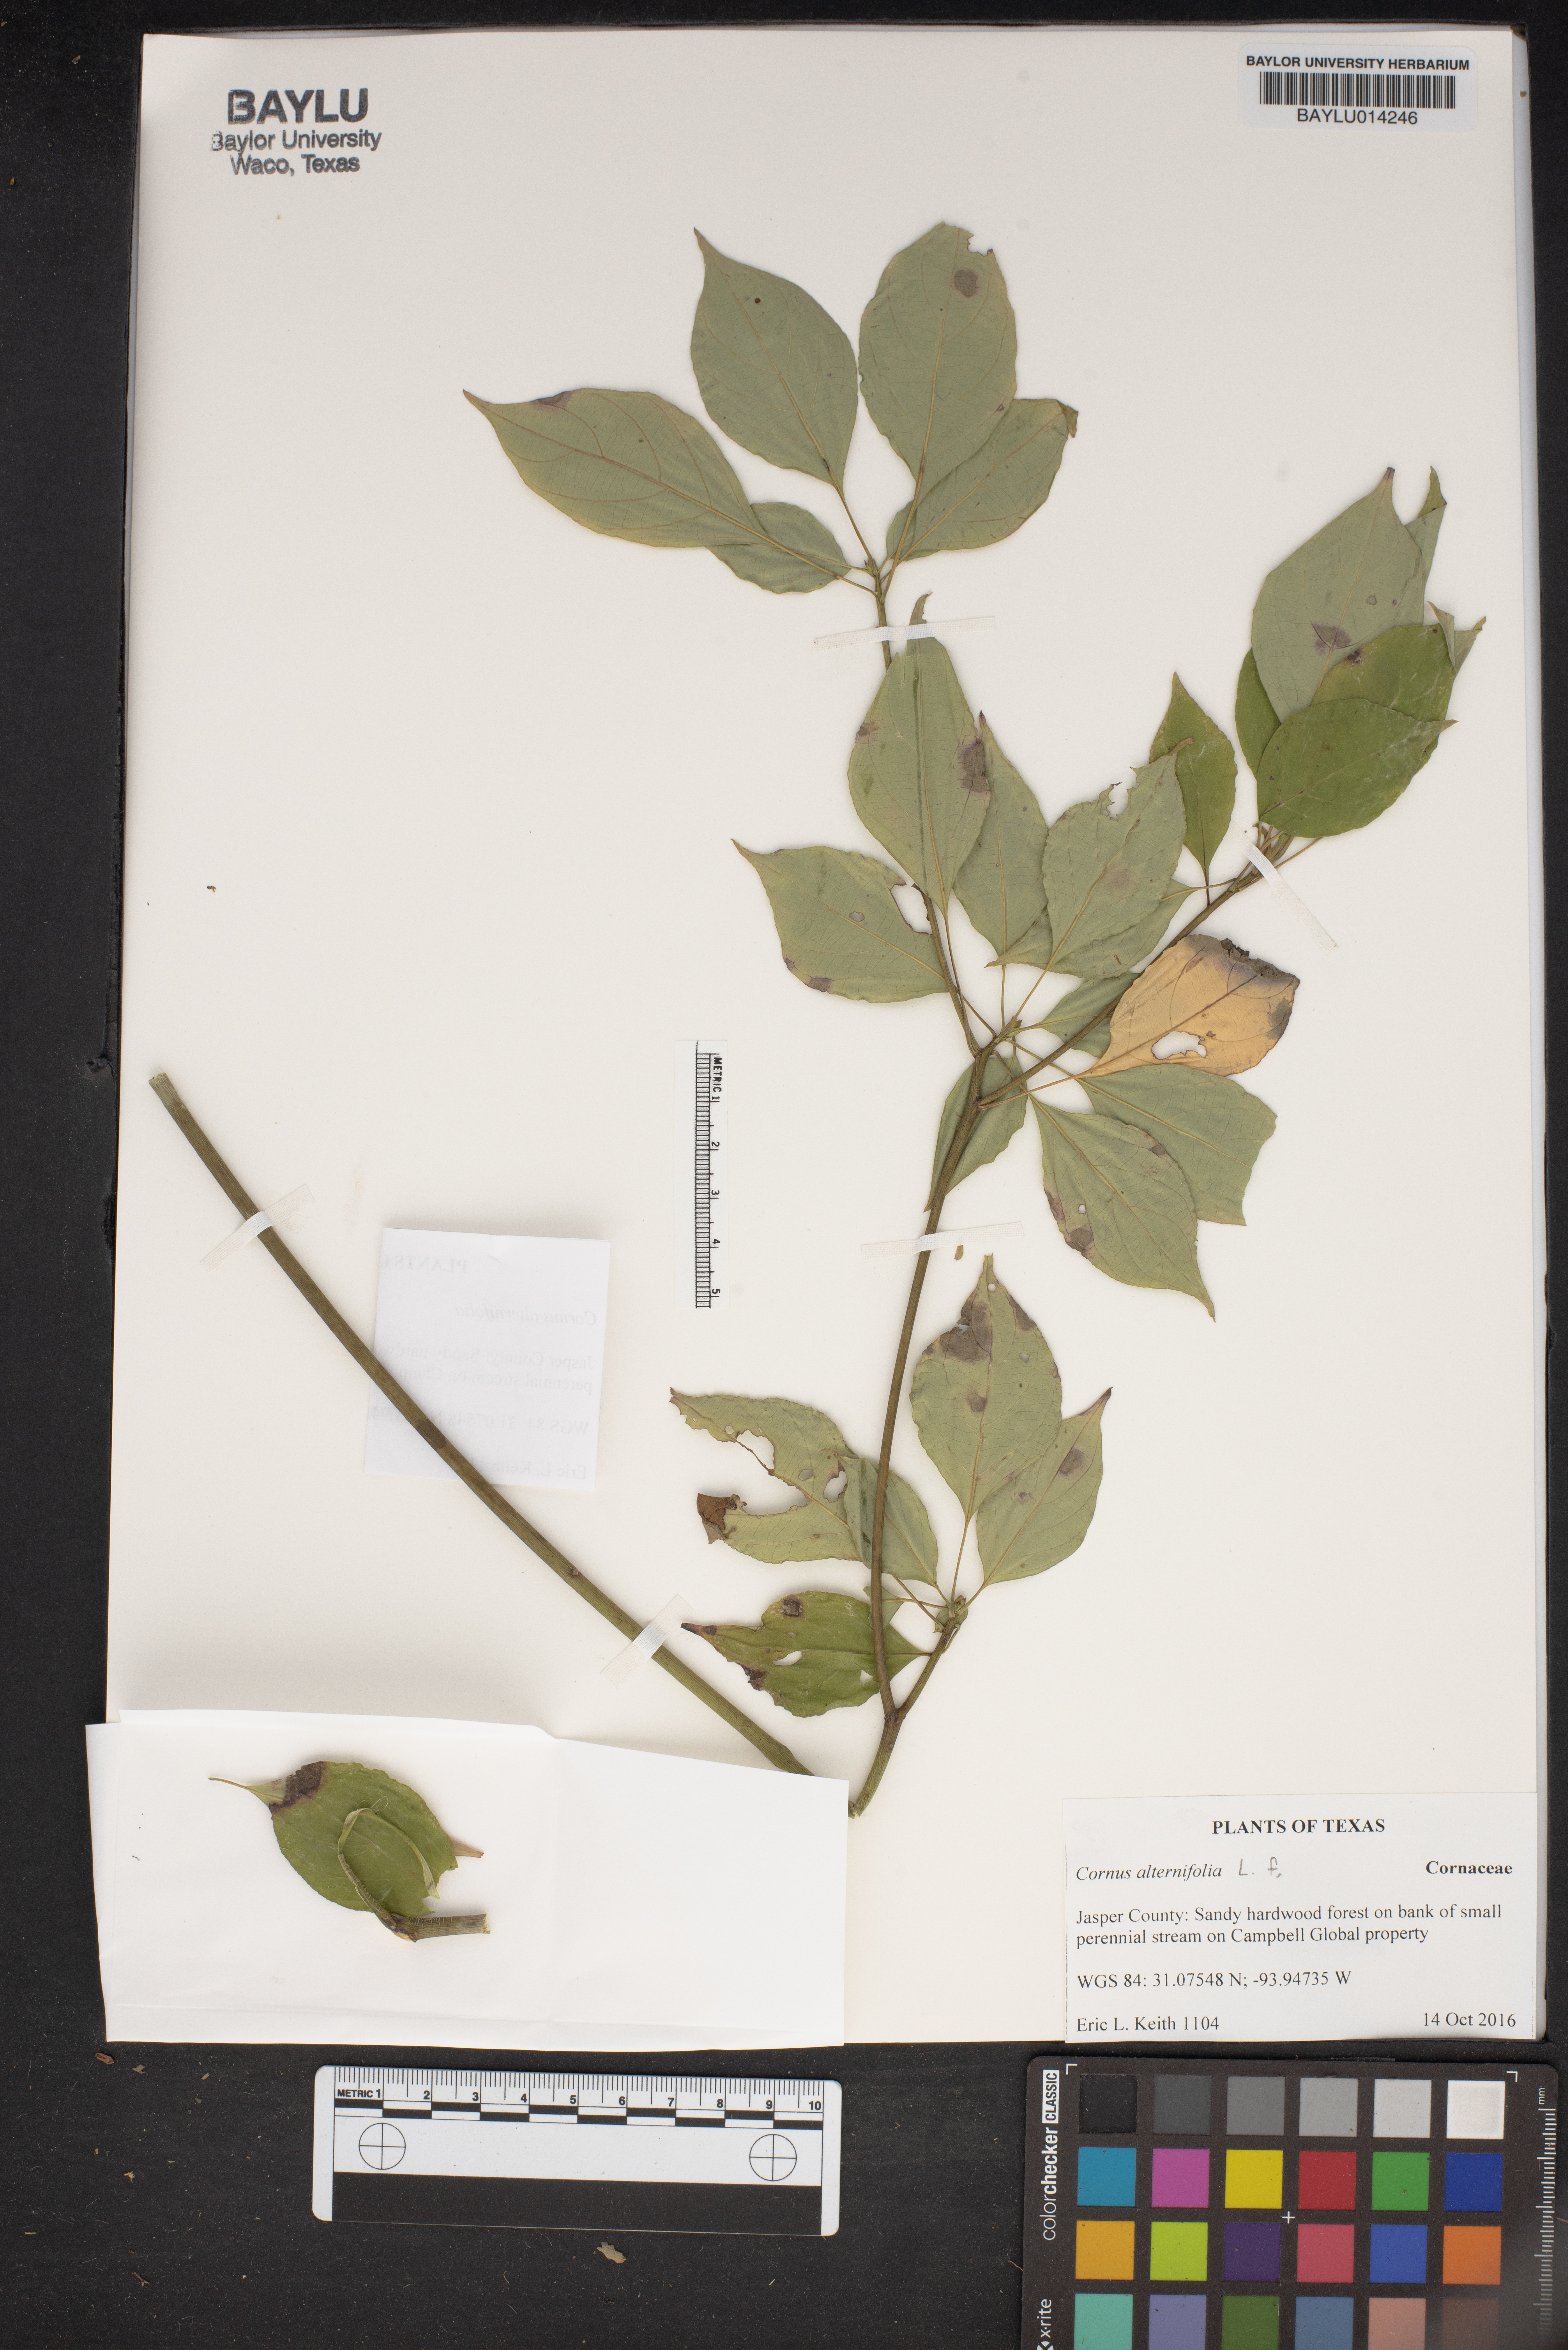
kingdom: Plantae
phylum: Tracheophyta
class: Magnoliopsida
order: Cornales
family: Cornaceae
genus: Cornus
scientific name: Cornus alternifolia
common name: Pagoda dogwood
